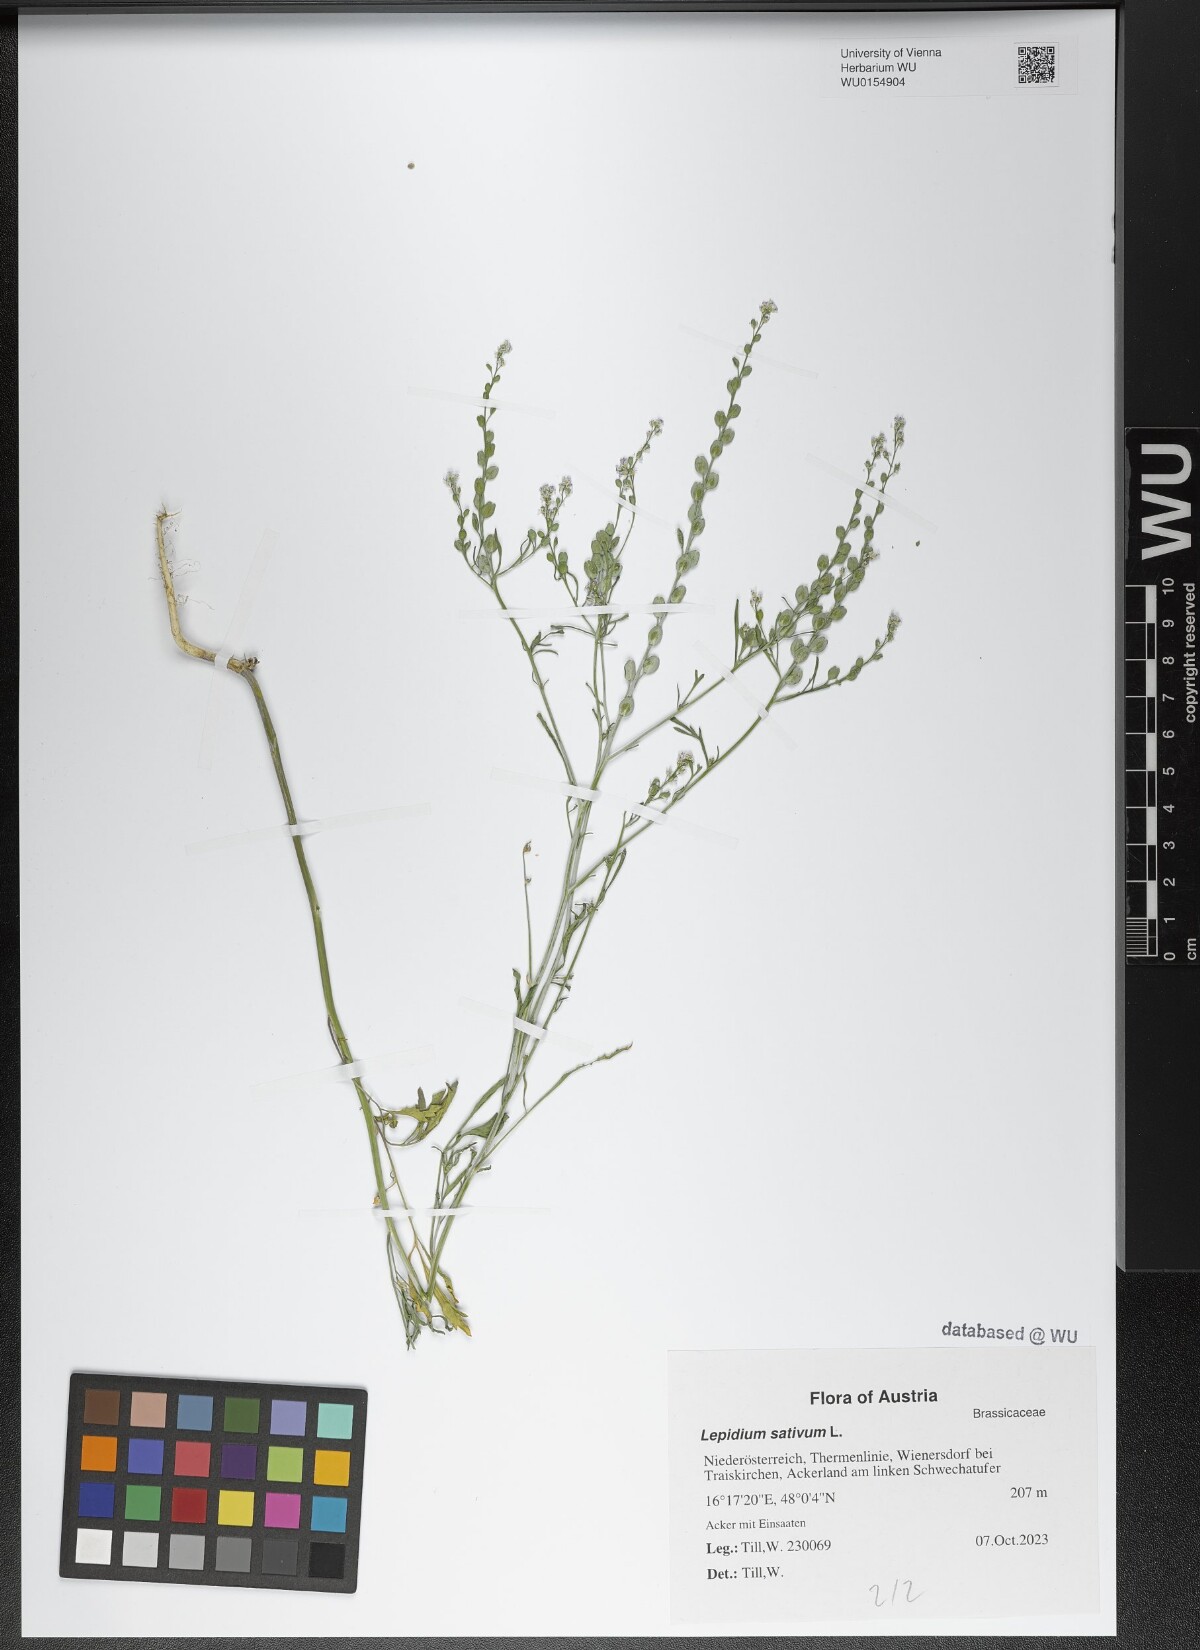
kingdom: Plantae
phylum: Tracheophyta
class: Magnoliopsida
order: Brassicales
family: Brassicaceae
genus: Lepidium
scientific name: Lepidium sativum
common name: Garden cress
